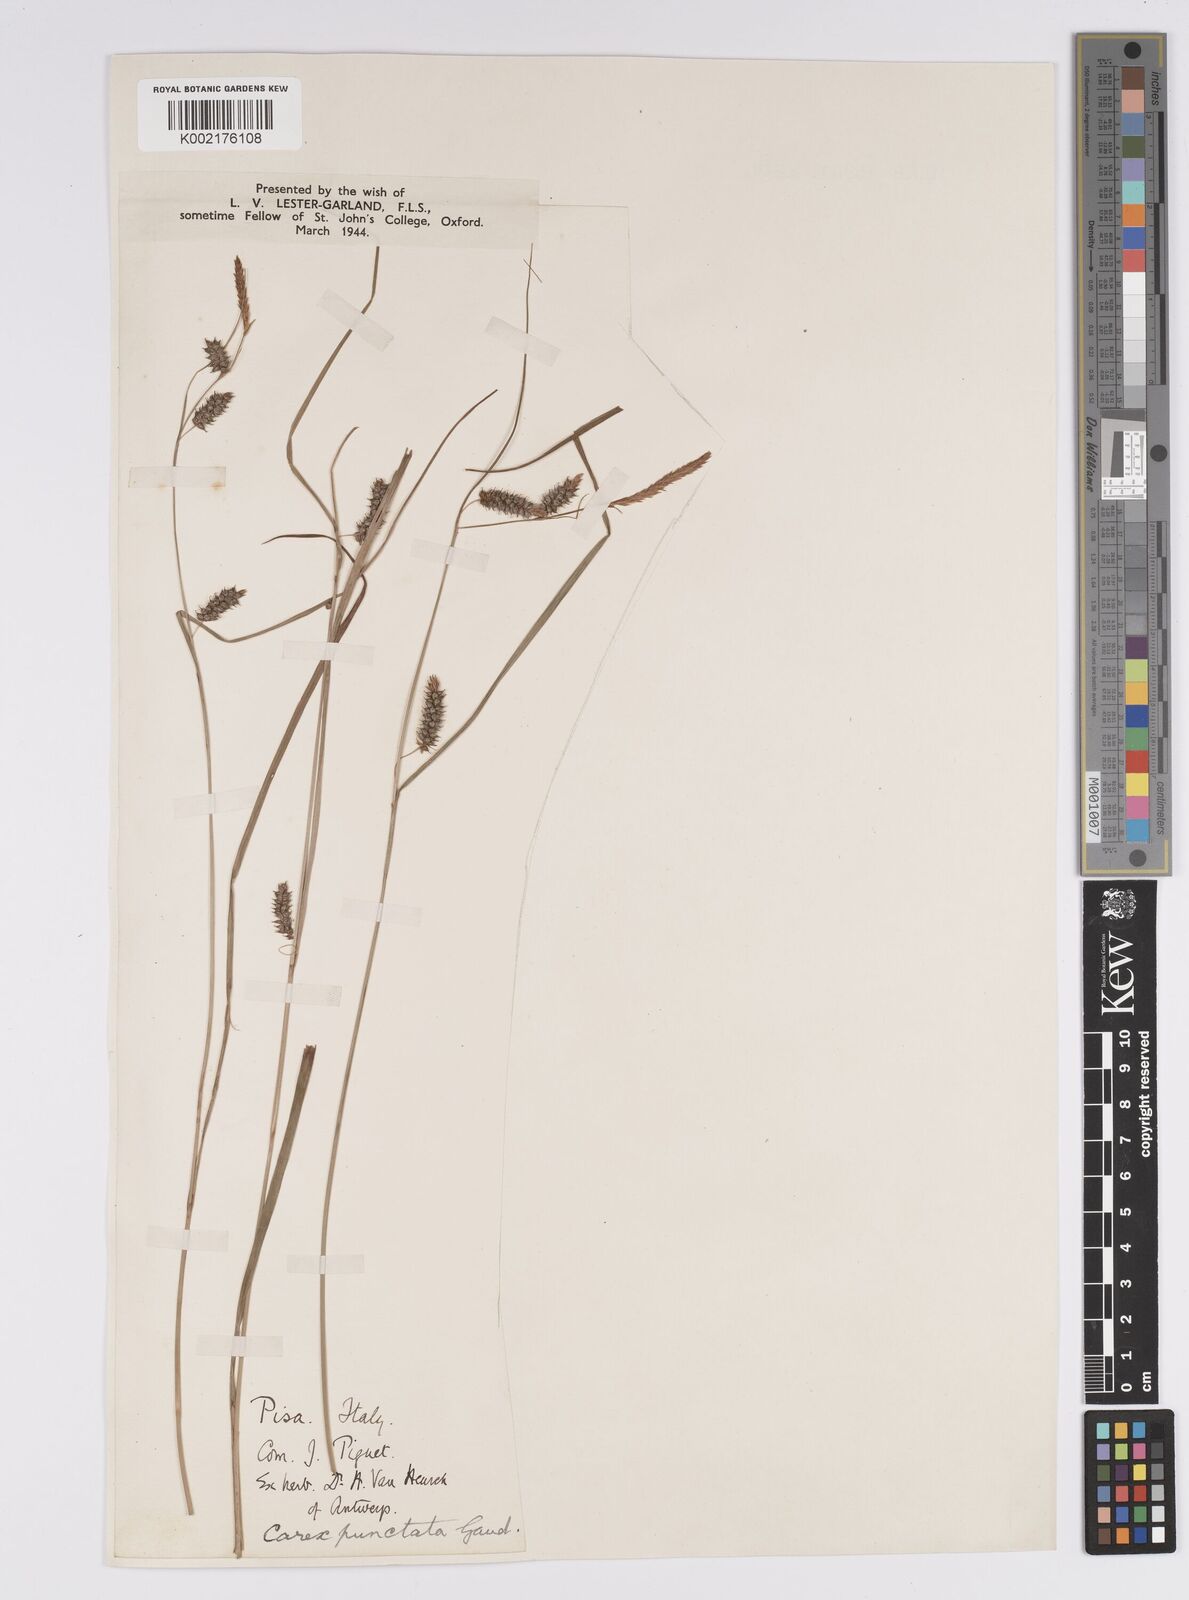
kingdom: Plantae
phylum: Tracheophyta
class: Liliopsida
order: Poales
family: Cyperaceae
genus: Carex
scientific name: Carex punctata
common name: Dotted sedge
